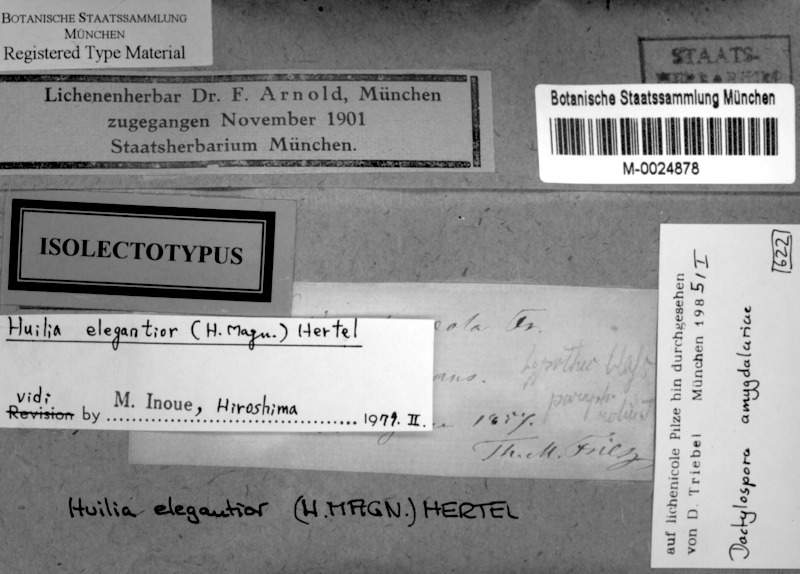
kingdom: Fungi
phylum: Ascomycota
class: Lecanoromycetes
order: Lecideales
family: Lecideaceae
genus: Amygdalaria
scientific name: Amygdalaria elegantior
